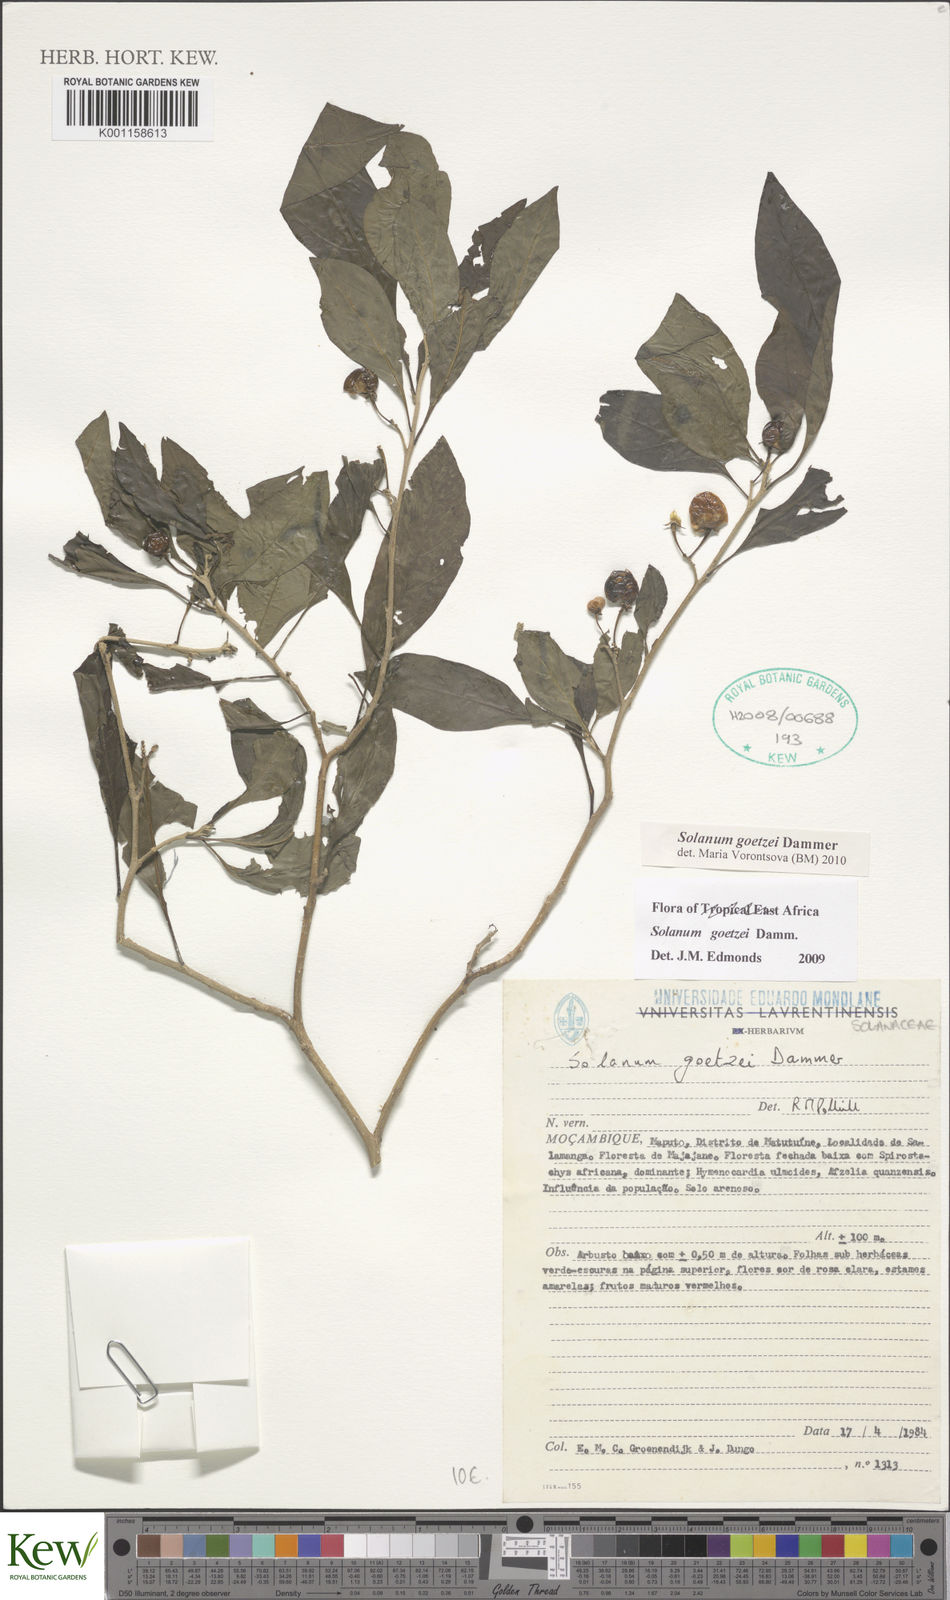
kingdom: Plantae
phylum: Tracheophyta
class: Magnoliopsida
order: Solanales
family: Solanaceae
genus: Solanum
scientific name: Solanum goetzei
